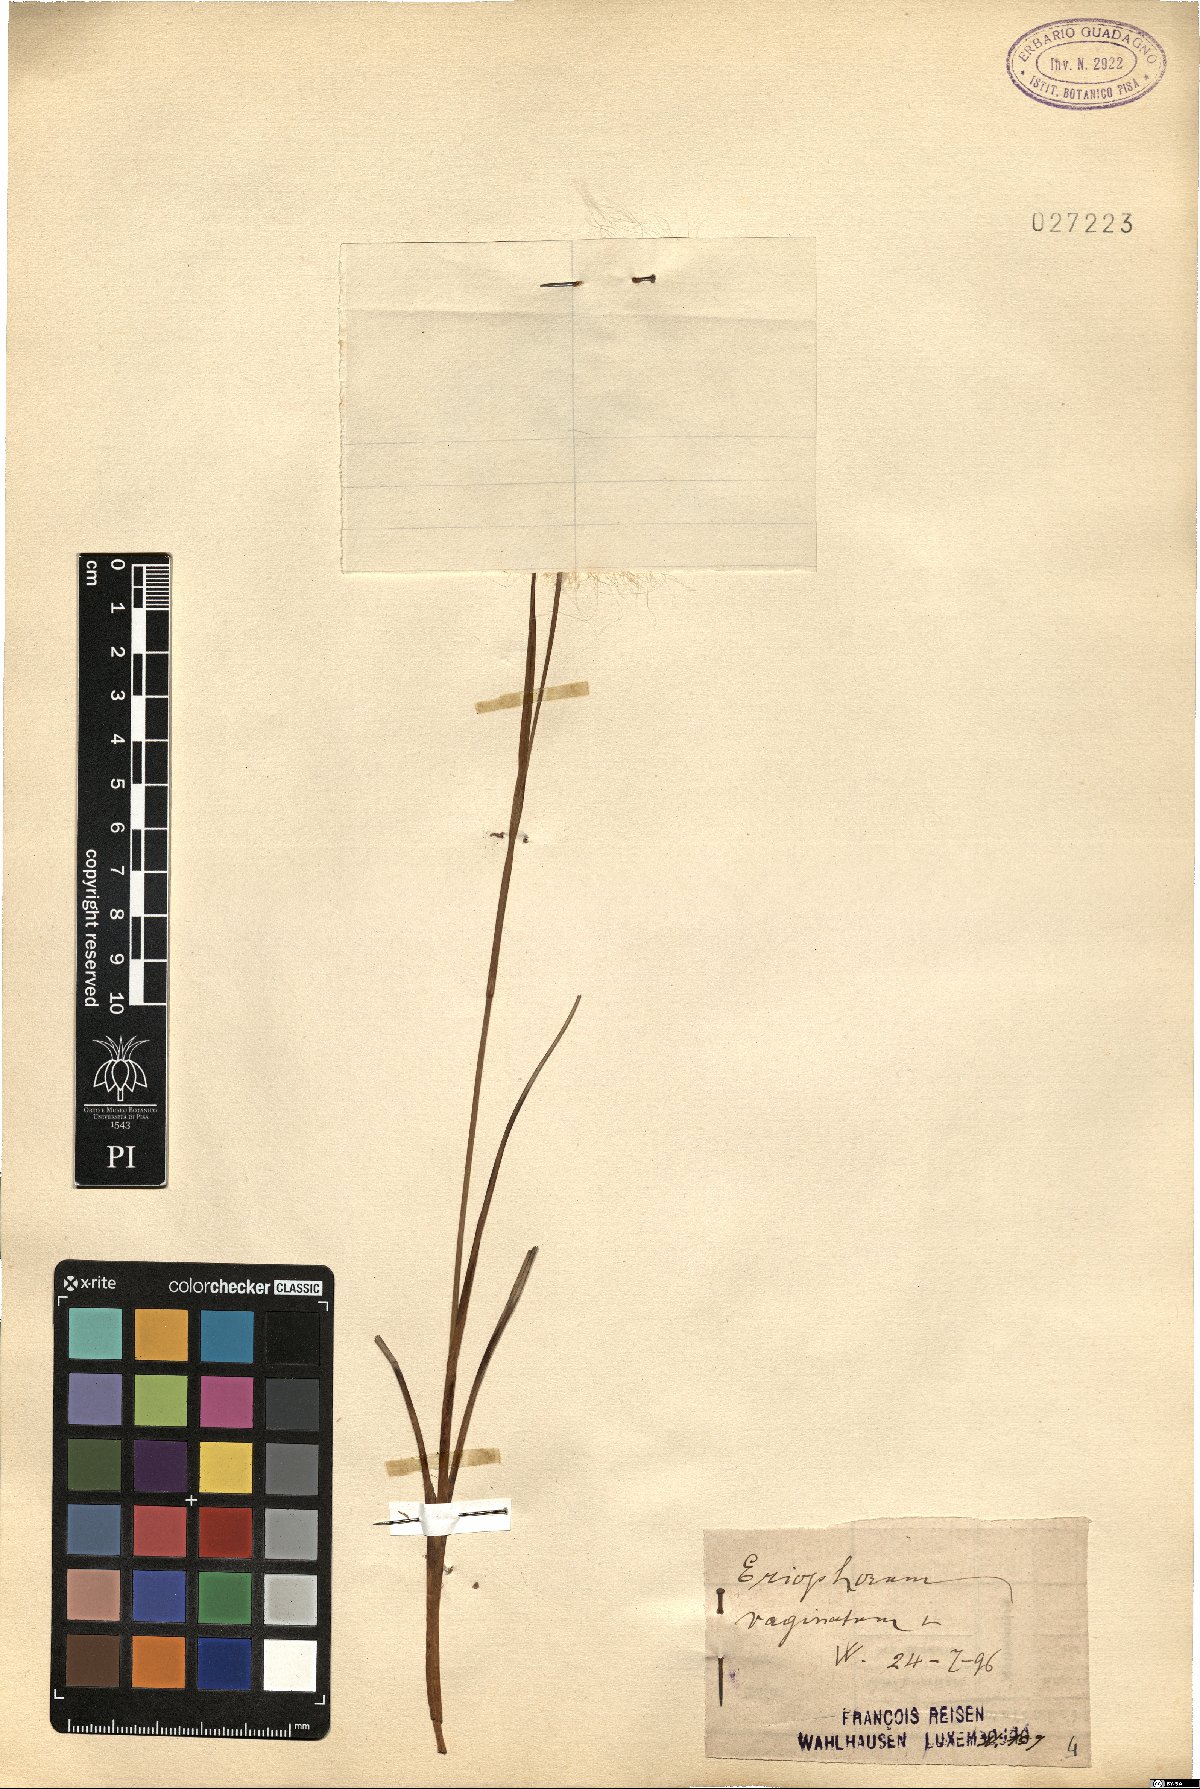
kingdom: Plantae
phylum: Tracheophyta
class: Liliopsida
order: Poales
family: Cyperaceae
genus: Eriophorum
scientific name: Eriophorum vaginatum
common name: Hare's-tail cottongrass
